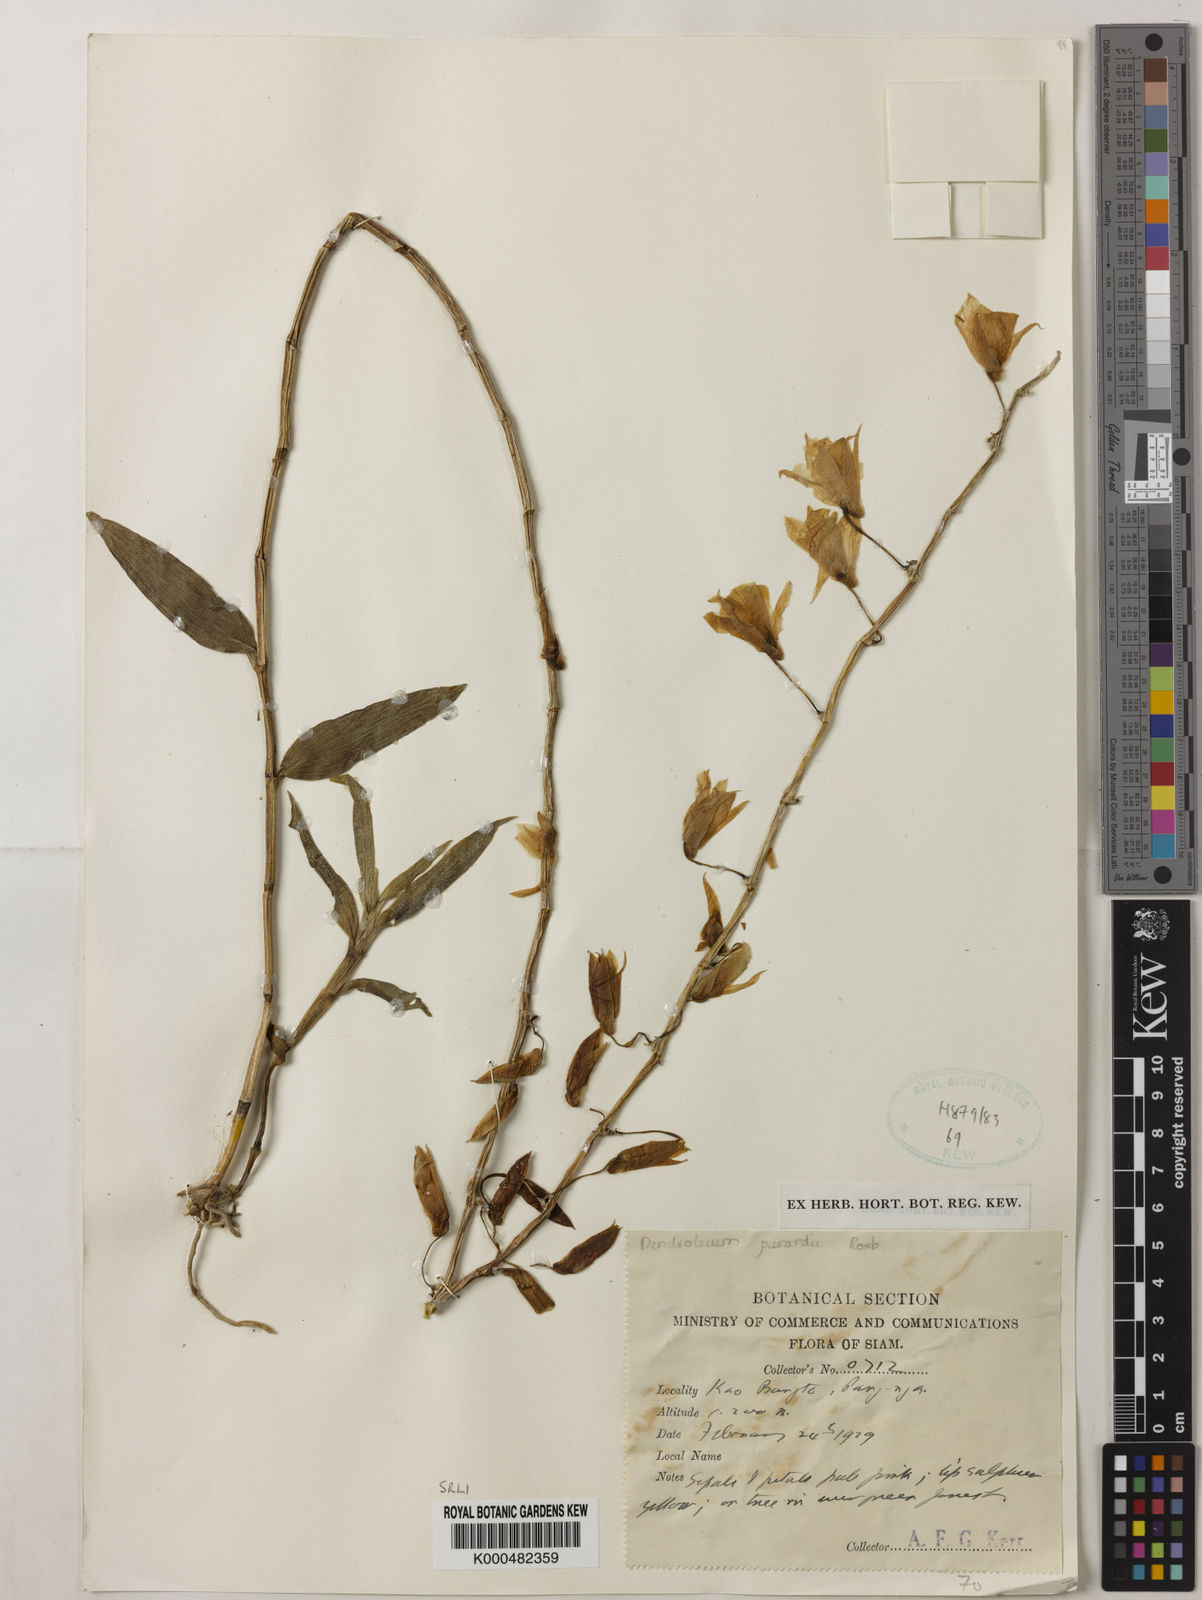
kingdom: Plantae
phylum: Tracheophyta
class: Liliopsida
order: Asparagales
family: Orchidaceae
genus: Dendrobium
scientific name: Dendrobium macrostachyum
